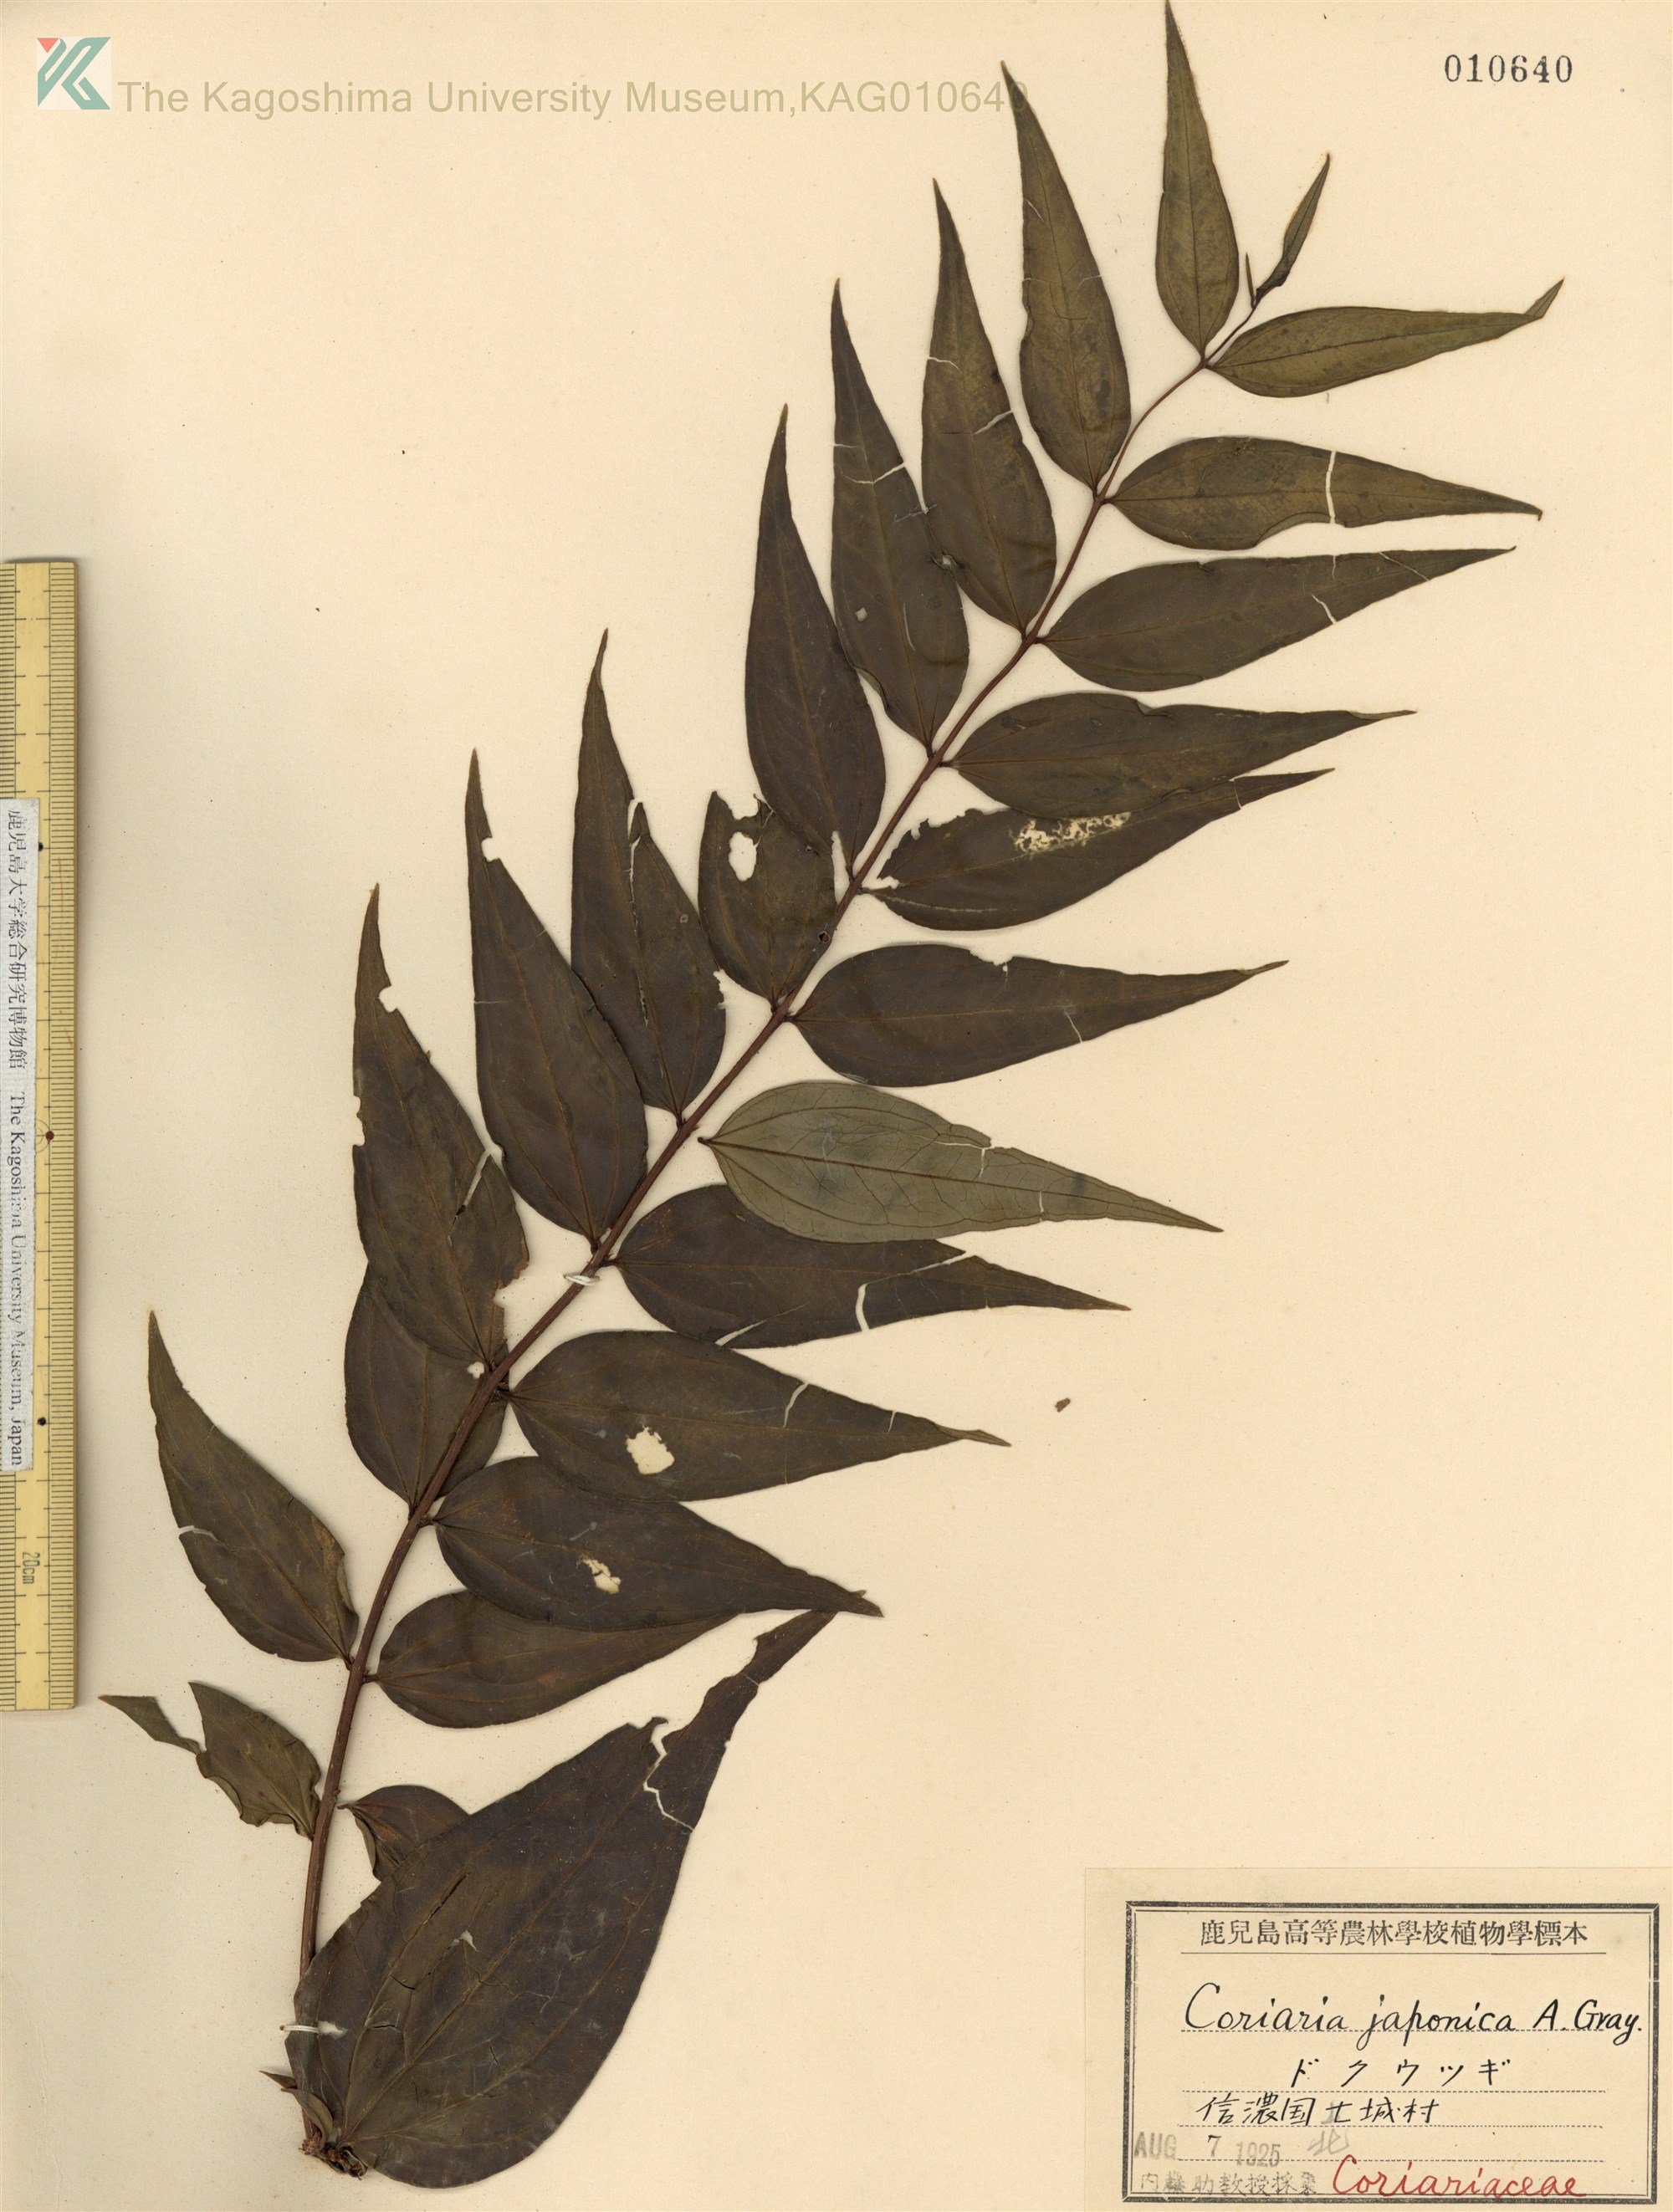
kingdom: Plantae
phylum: Tracheophyta
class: Magnoliopsida
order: Cucurbitales
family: Coriariaceae
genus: Coriaria
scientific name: Coriaria japonica
